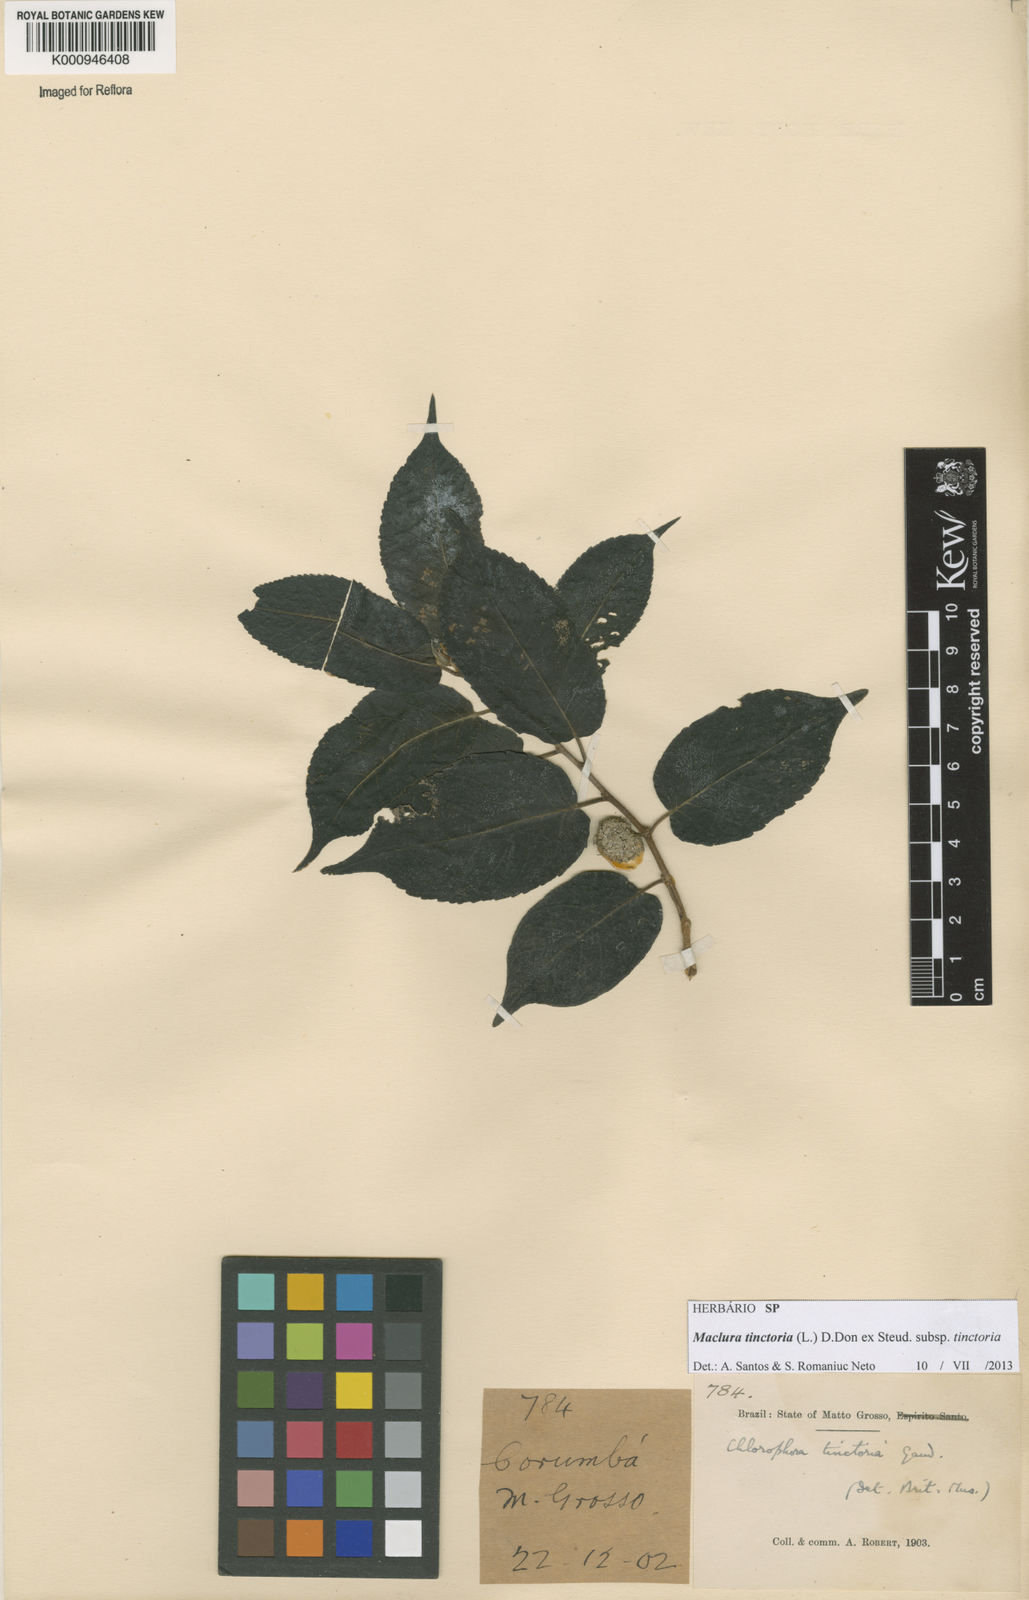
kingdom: Plantae
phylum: Tracheophyta
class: Magnoliopsida
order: Rosales
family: Moraceae
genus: Maclura
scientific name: Maclura tinctoria
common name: Old fustic
